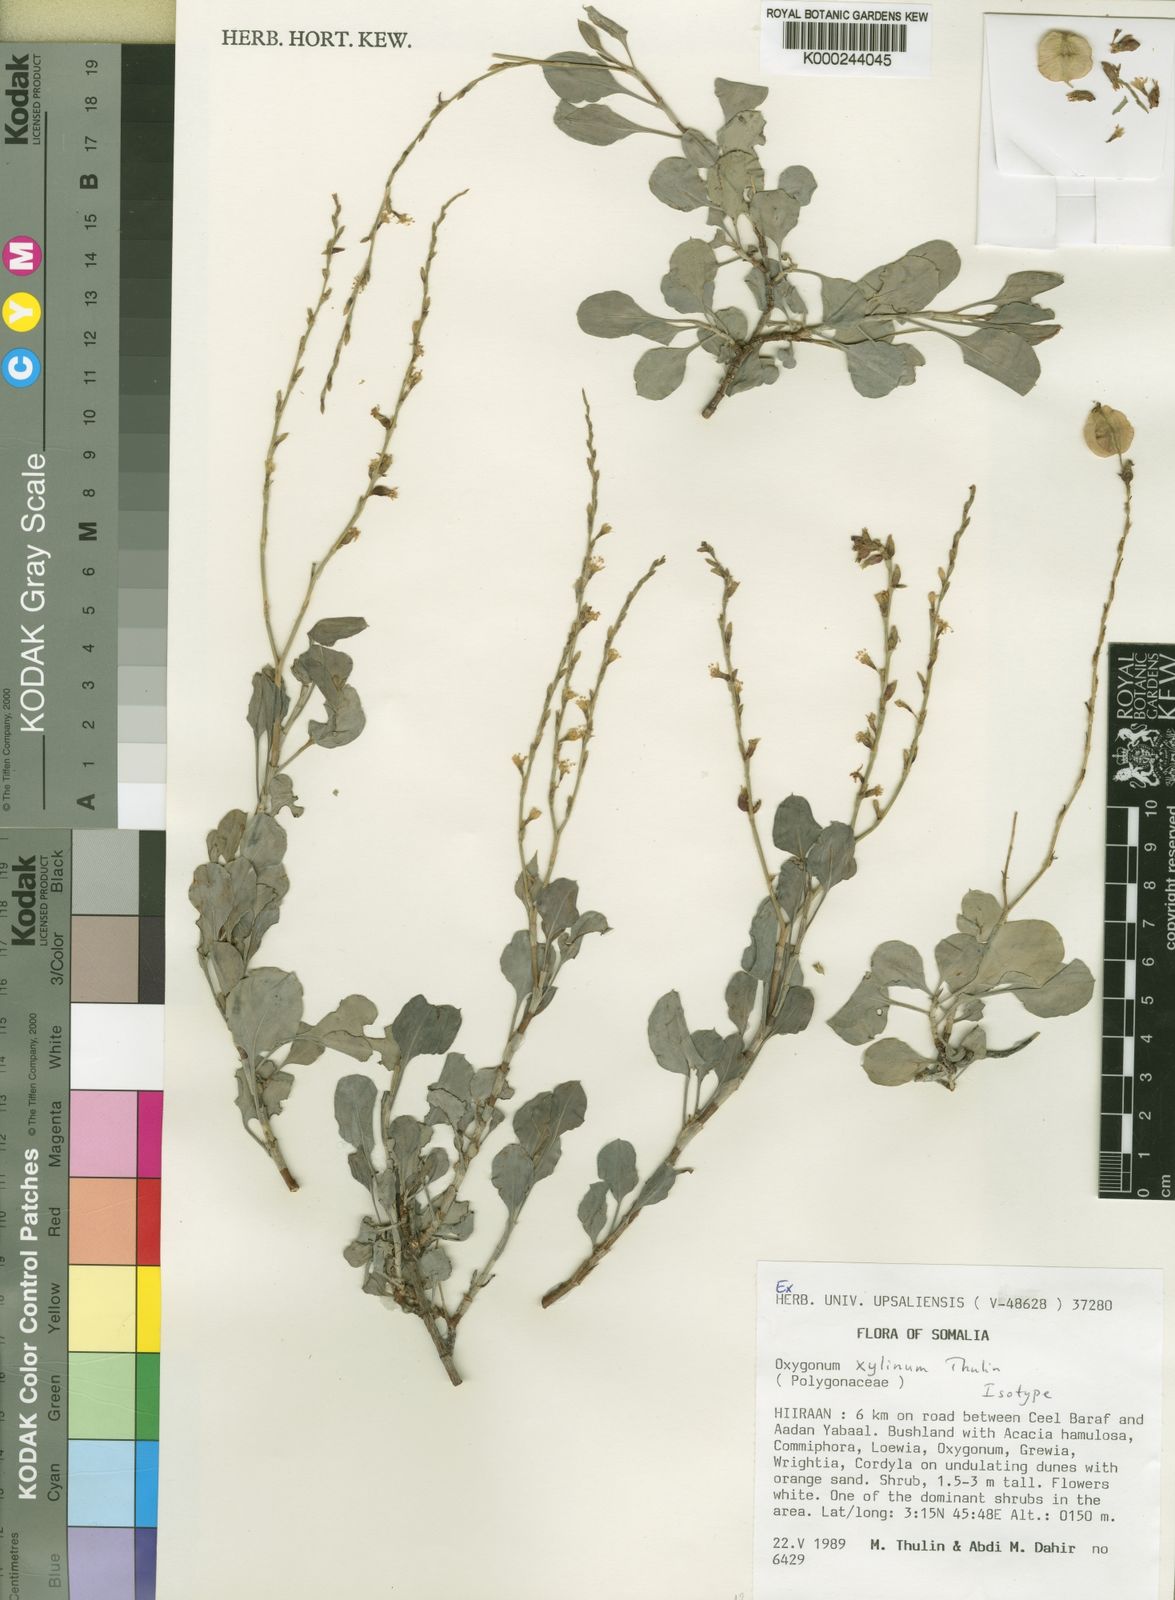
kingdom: Plantae
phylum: Tracheophyta
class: Magnoliopsida
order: Caryophyllales
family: Polygonaceae
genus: Oxygonum
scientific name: Oxygonum
